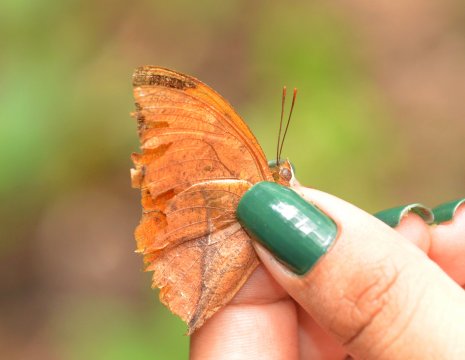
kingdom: Animalia
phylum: Arthropoda
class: Insecta
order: Lepidoptera
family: Nymphalidae
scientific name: Nymphalidae
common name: Brushfoots
